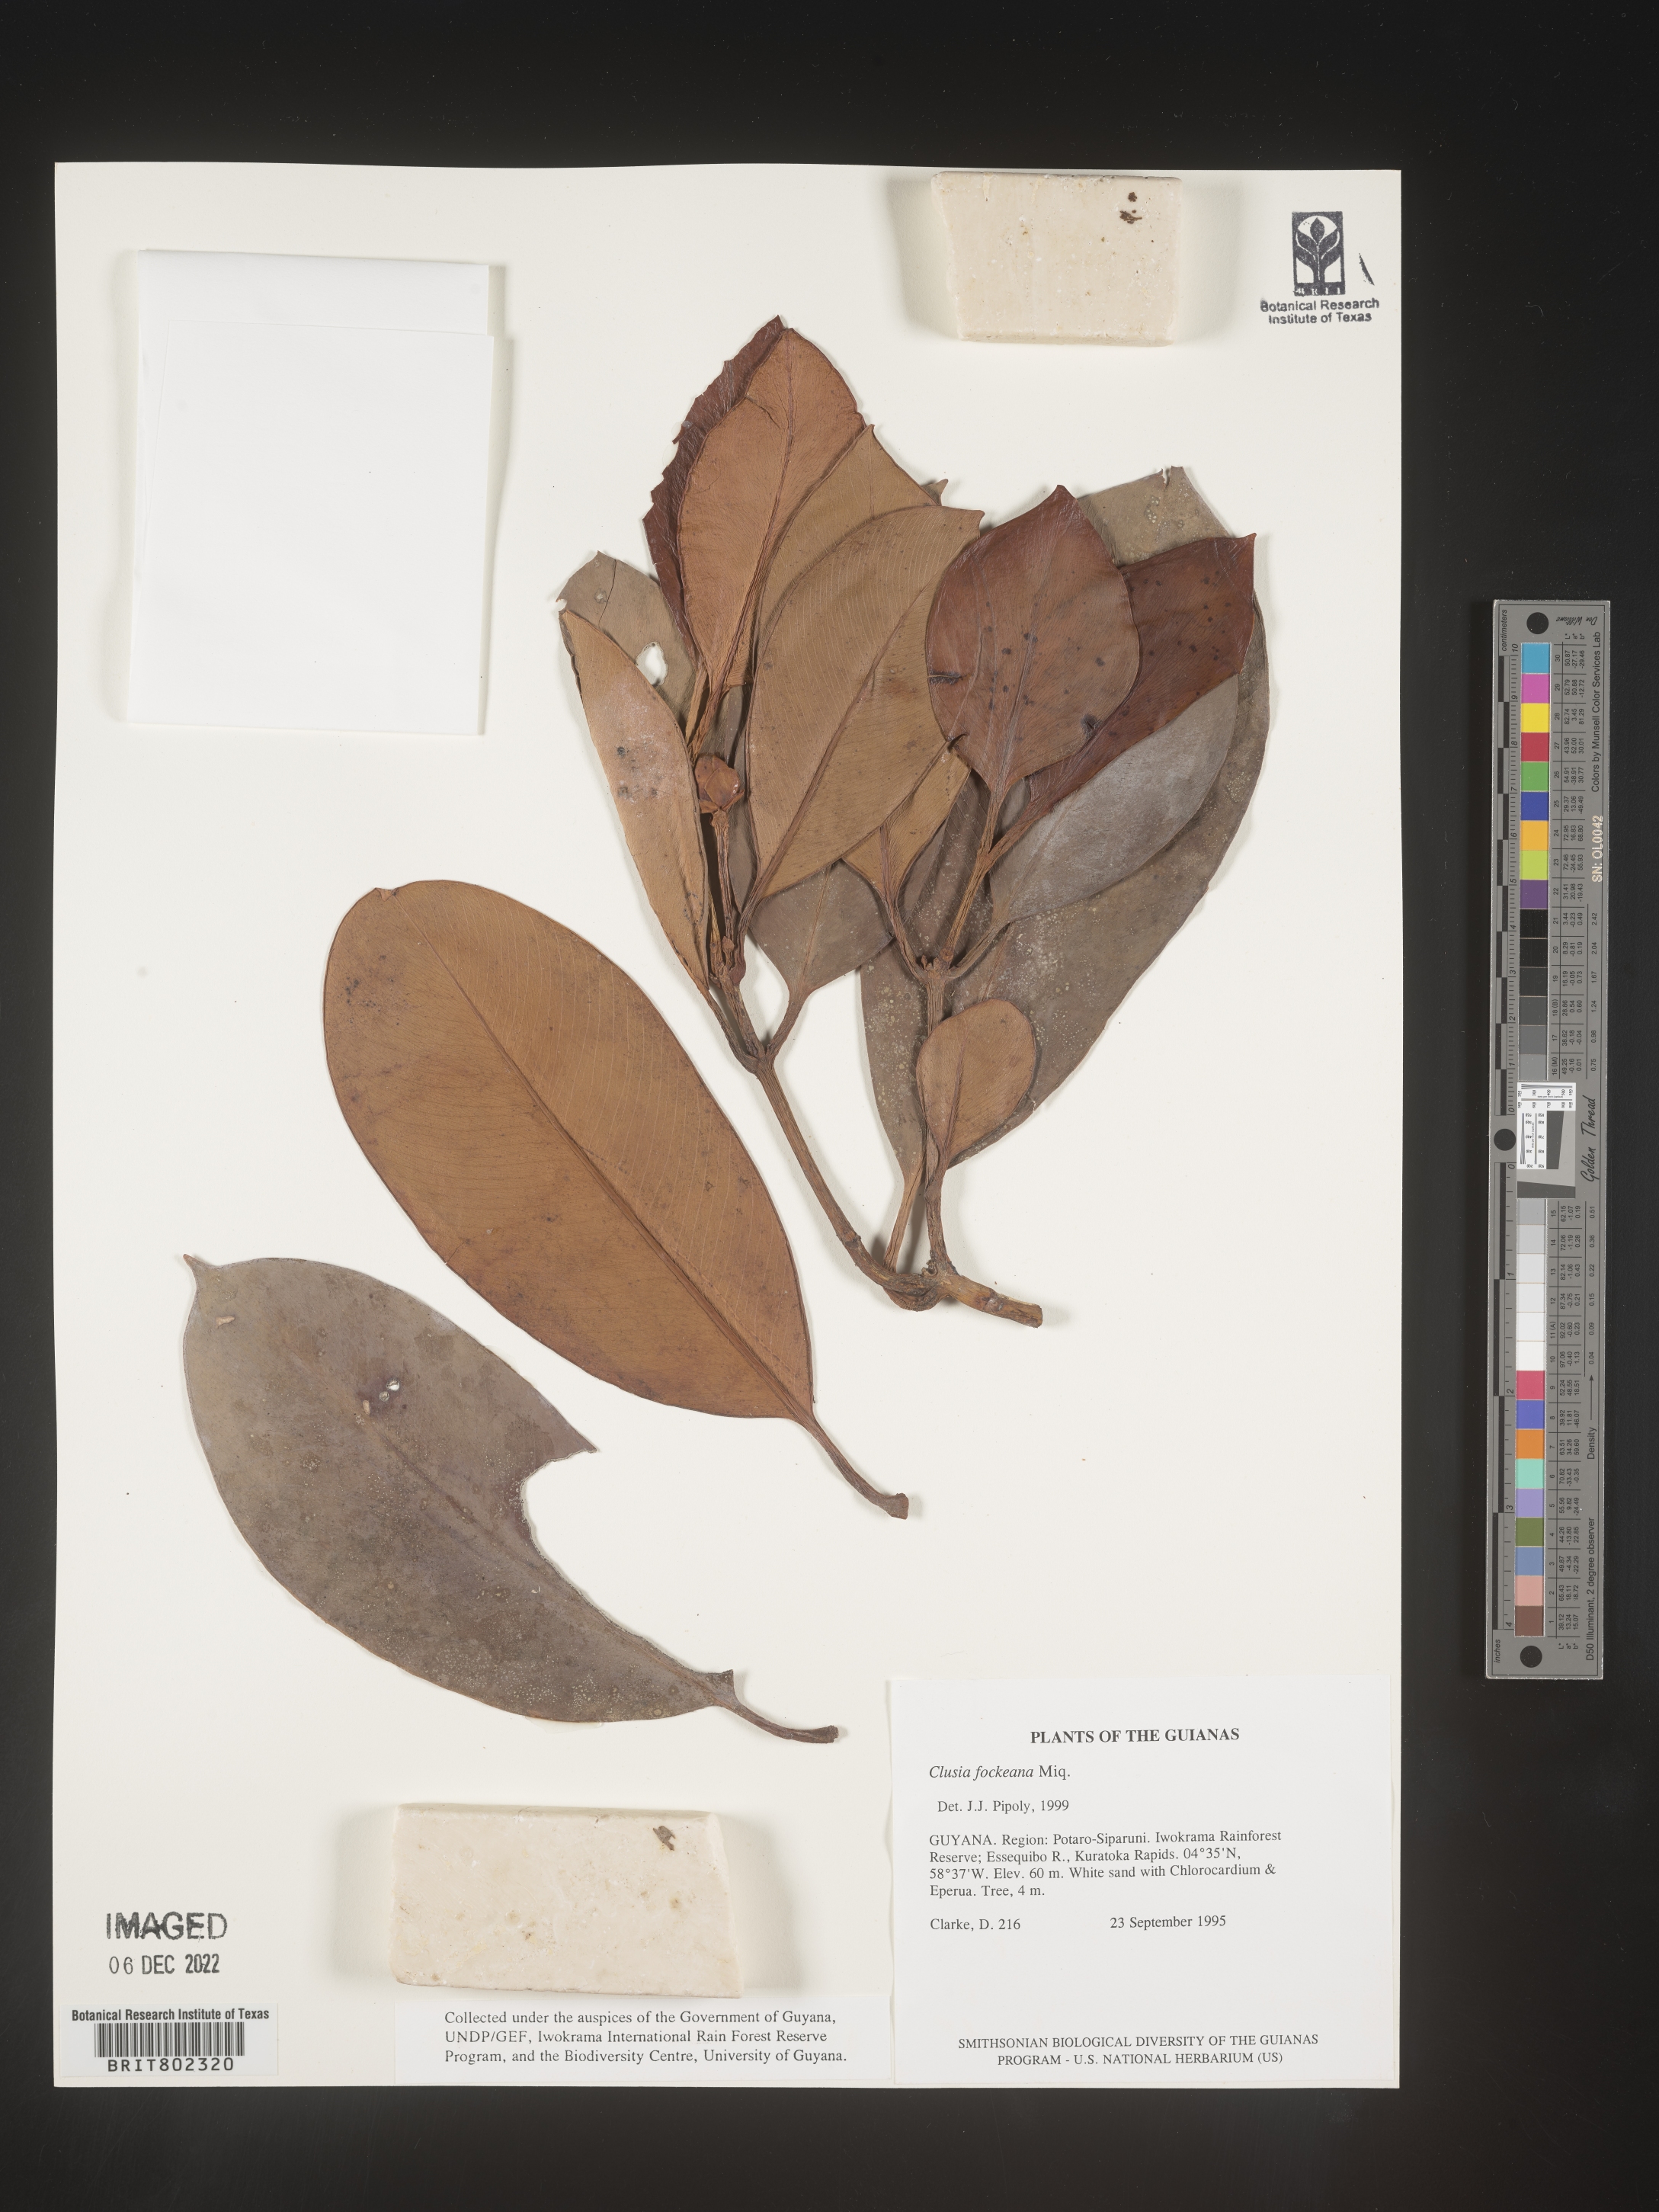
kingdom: Plantae
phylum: Tracheophyta
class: Magnoliopsida
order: Malpighiales
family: Clusiaceae
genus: Clusia
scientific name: Clusia
